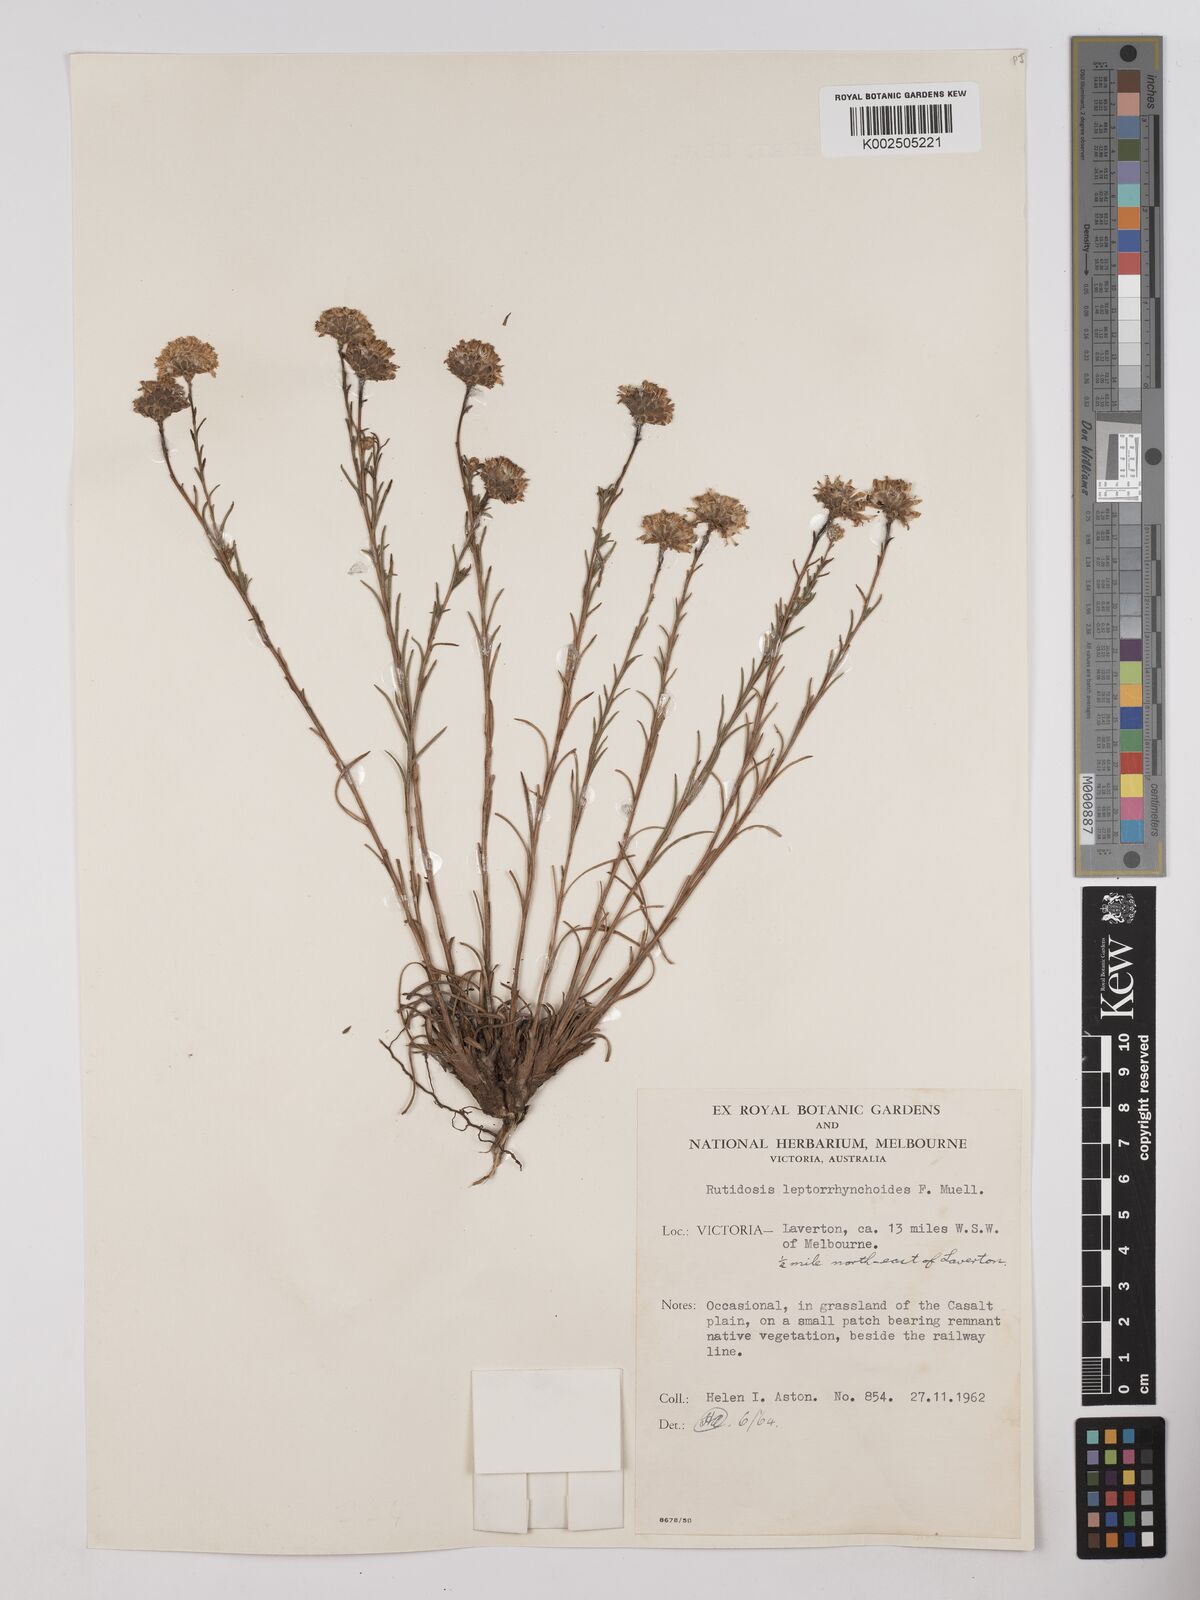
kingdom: Plantae
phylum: Tracheophyta
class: Magnoliopsida
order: Asterales
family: Asteraceae
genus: Rutidosis
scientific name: Rutidosis leptorrhynchoides
